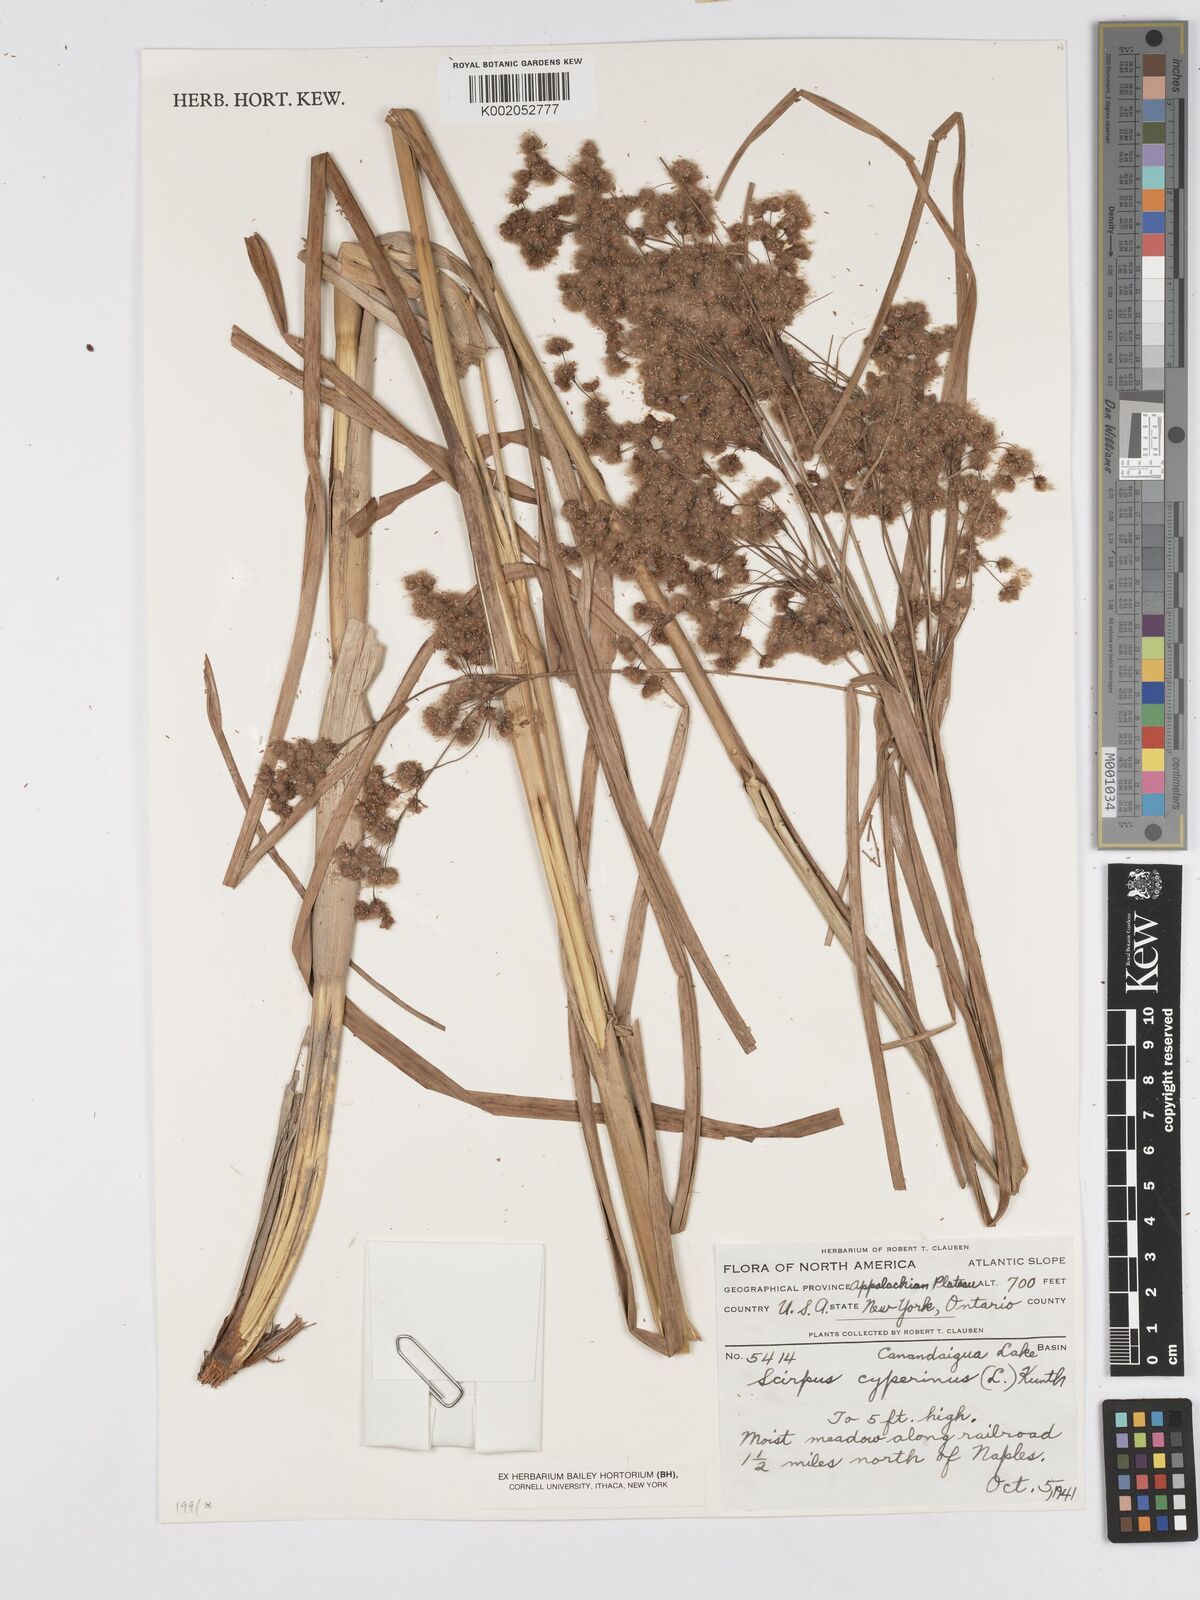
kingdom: Plantae
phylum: Tracheophyta
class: Liliopsida
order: Poales
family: Cyperaceae
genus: Scirpus
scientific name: Scirpus cyperinus
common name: Black-sheathed bulrush
